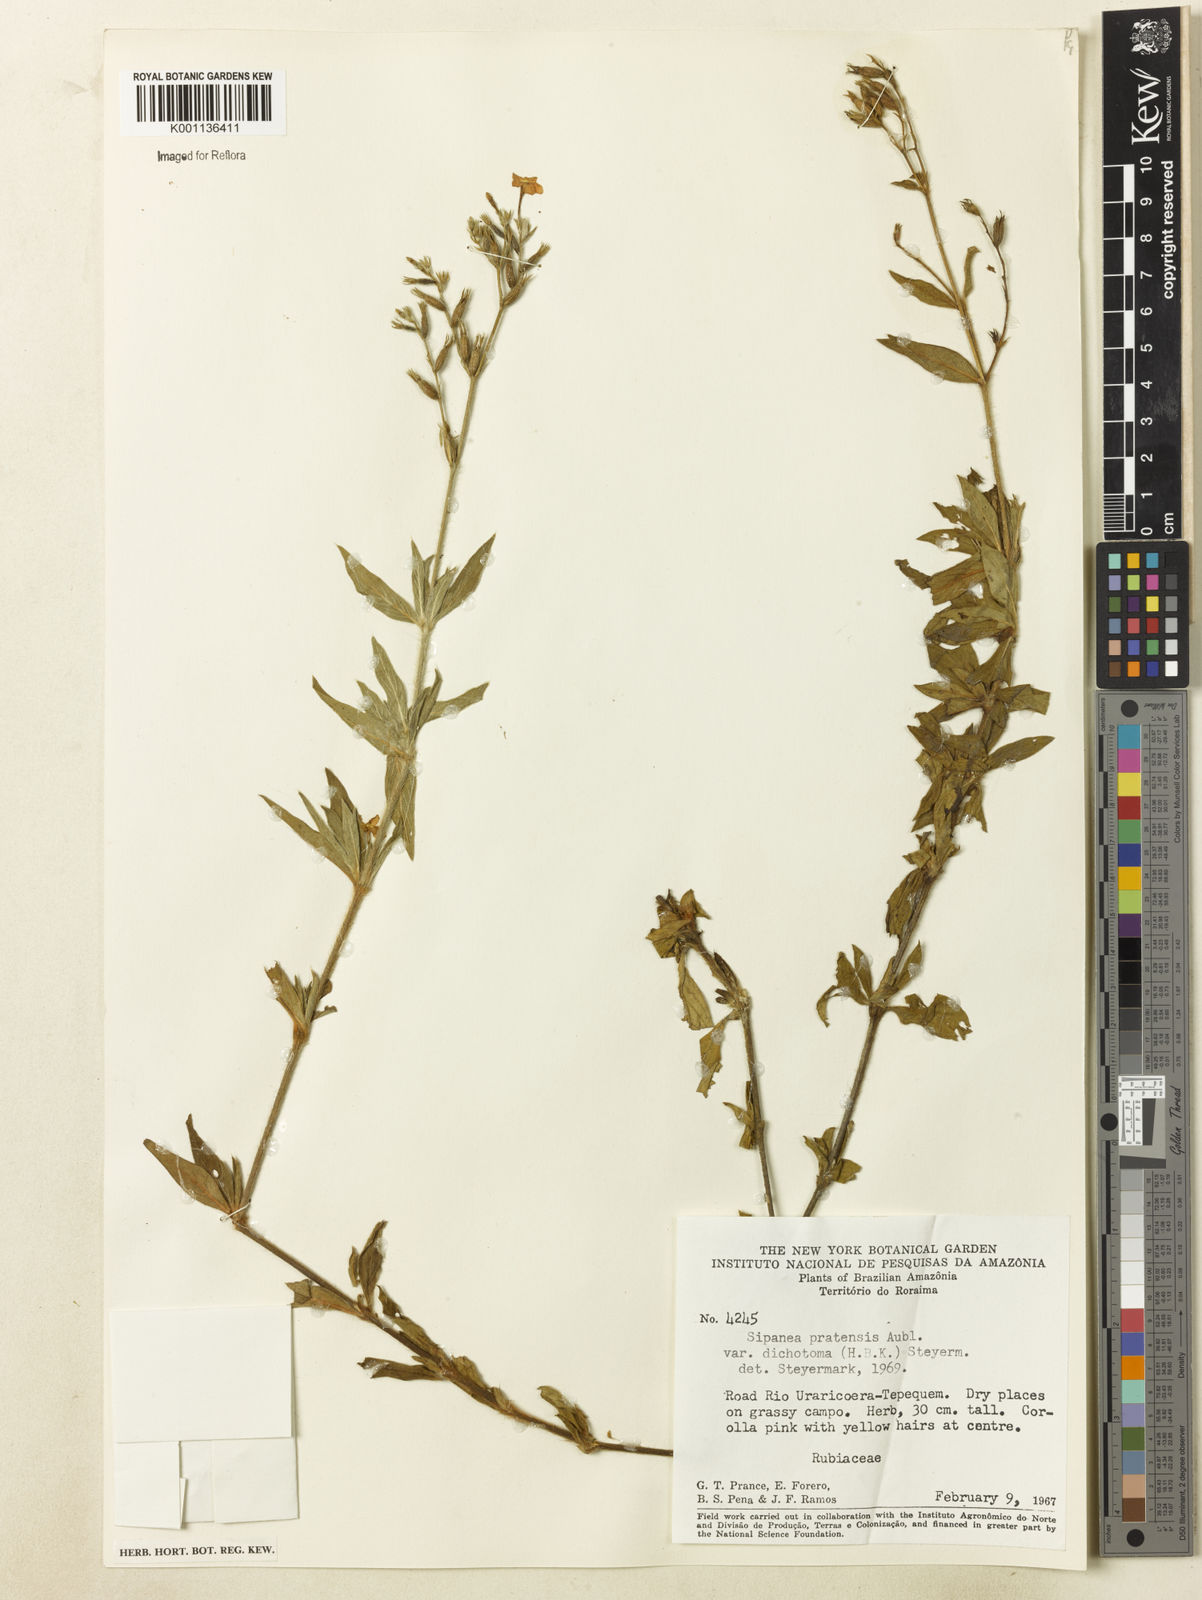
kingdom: Plantae
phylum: Tracheophyta
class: Magnoliopsida
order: Gentianales
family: Rubiaceae
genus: Sipanea
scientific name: Sipanea pratensis
